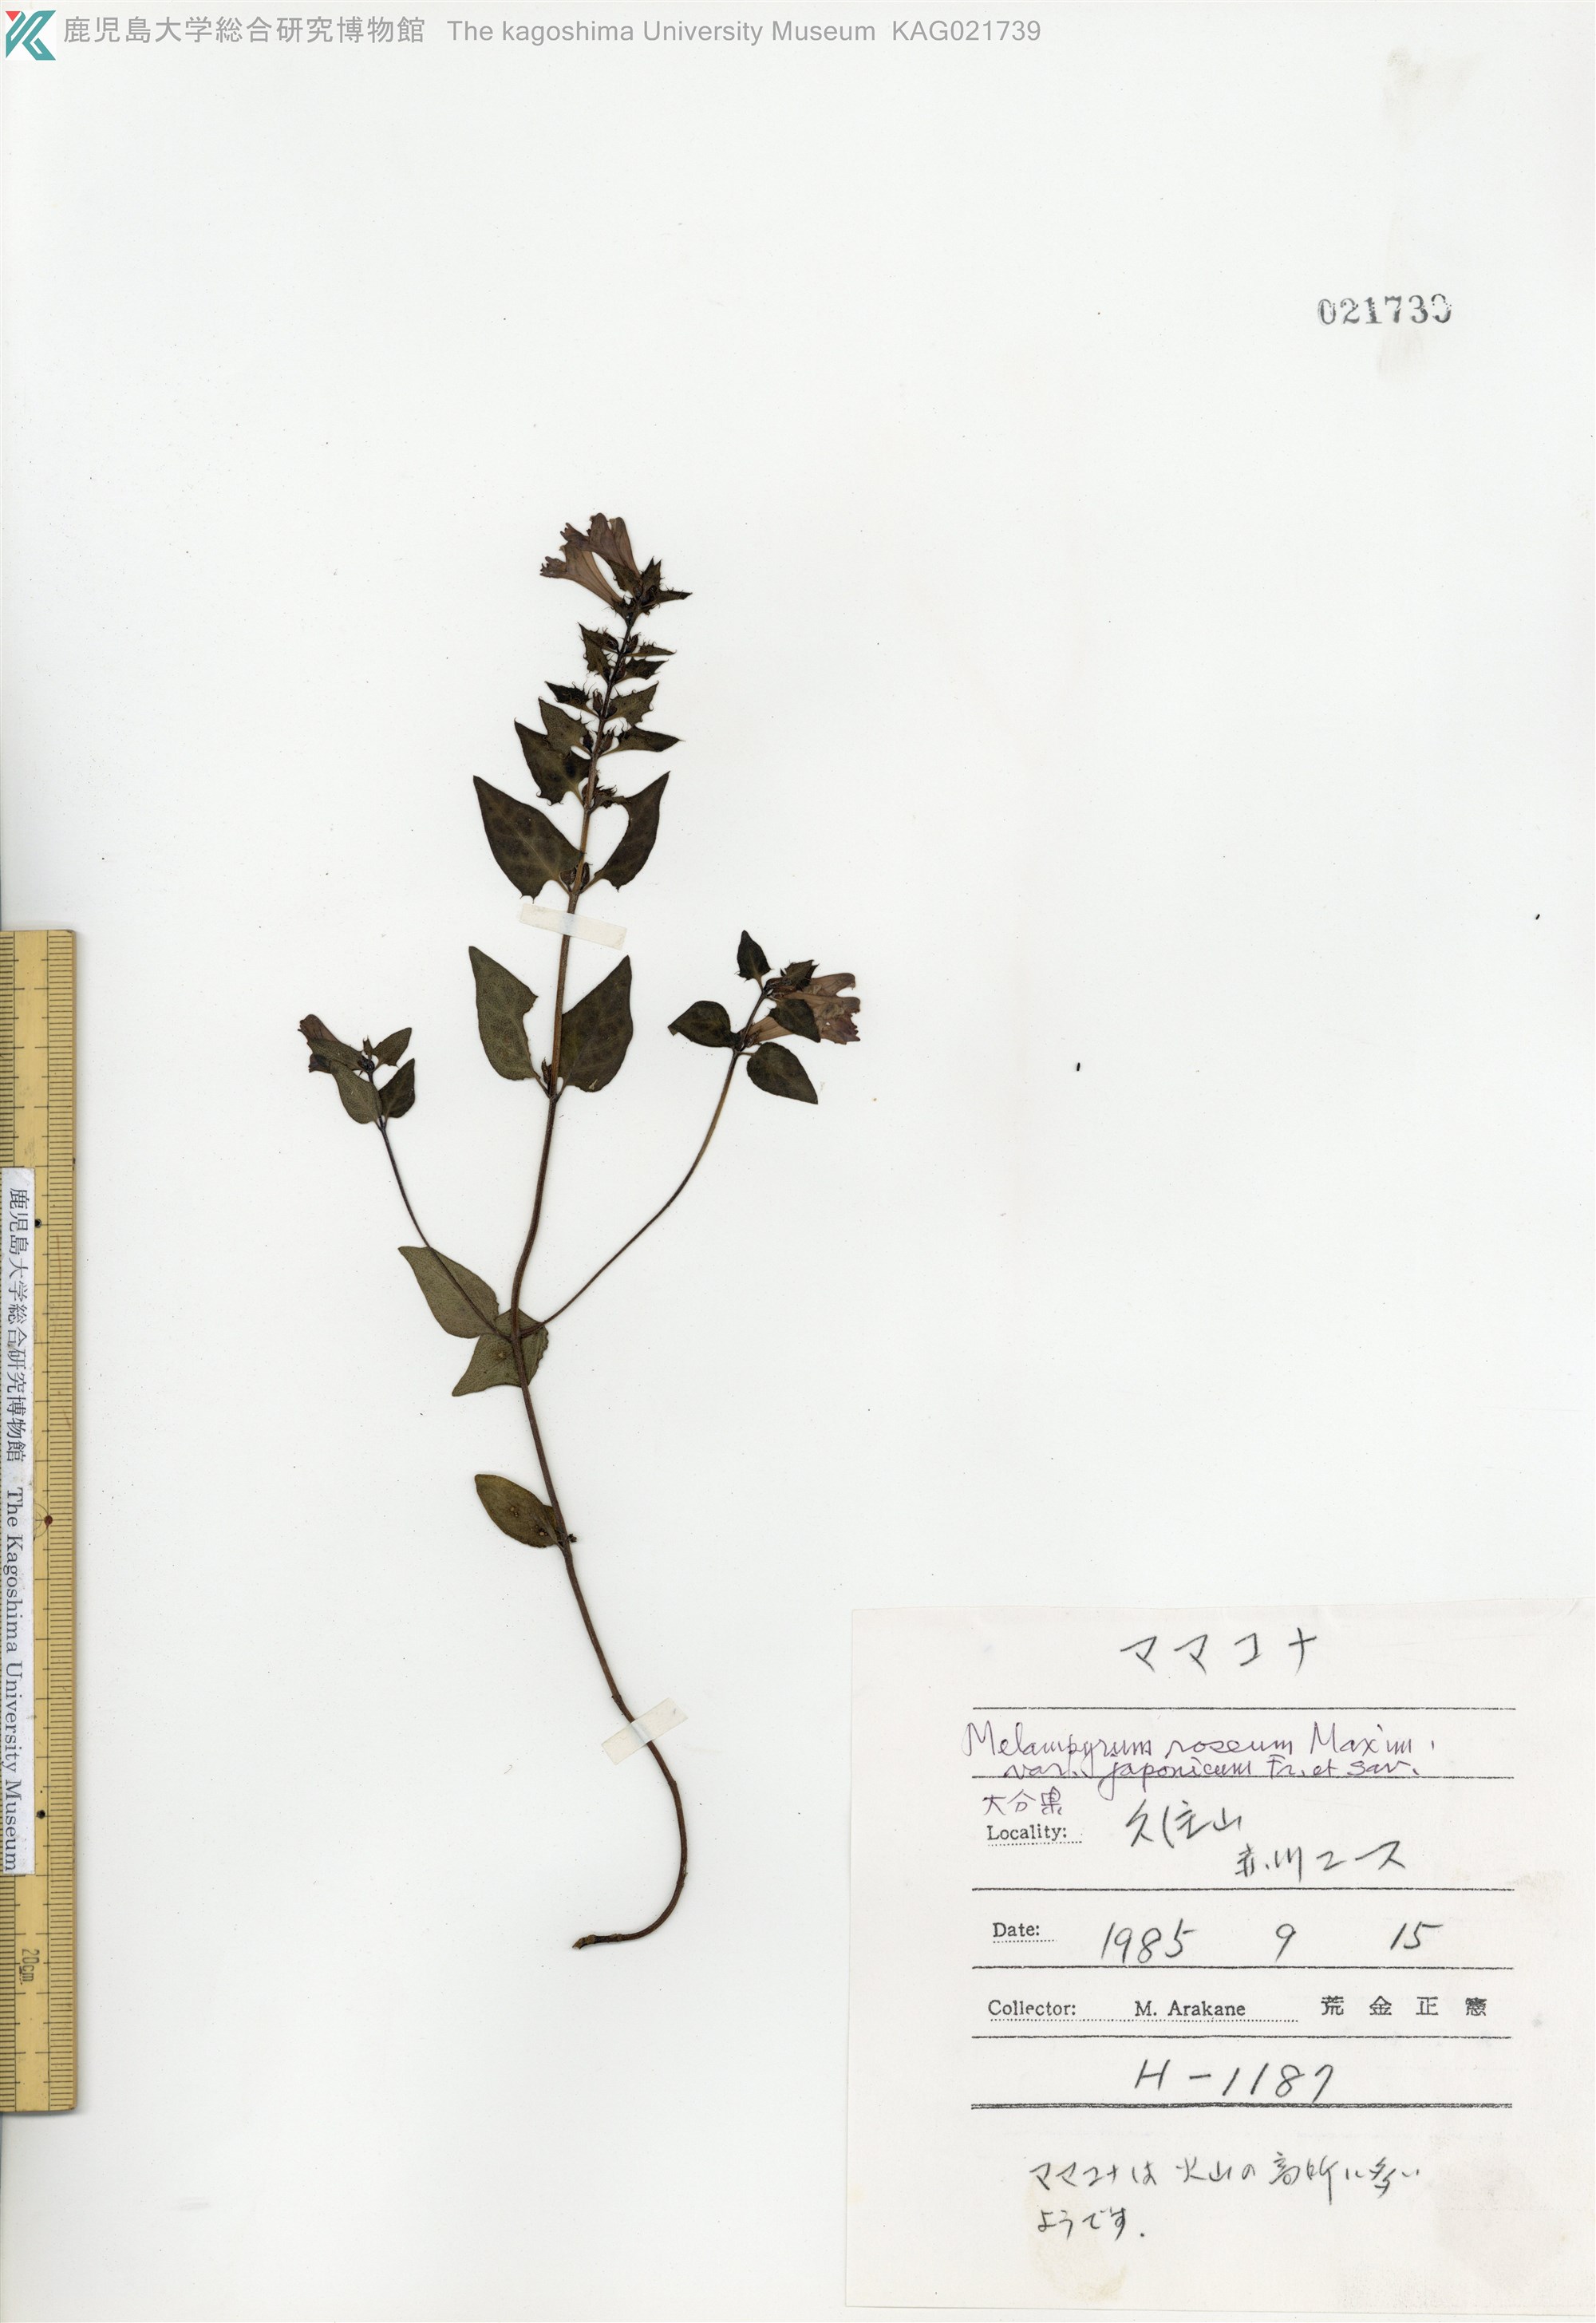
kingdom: Plantae
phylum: Tracheophyta
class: Magnoliopsida
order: Lamiales
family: Orobanchaceae
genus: Melampyrum
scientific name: Melampyrum roseum
